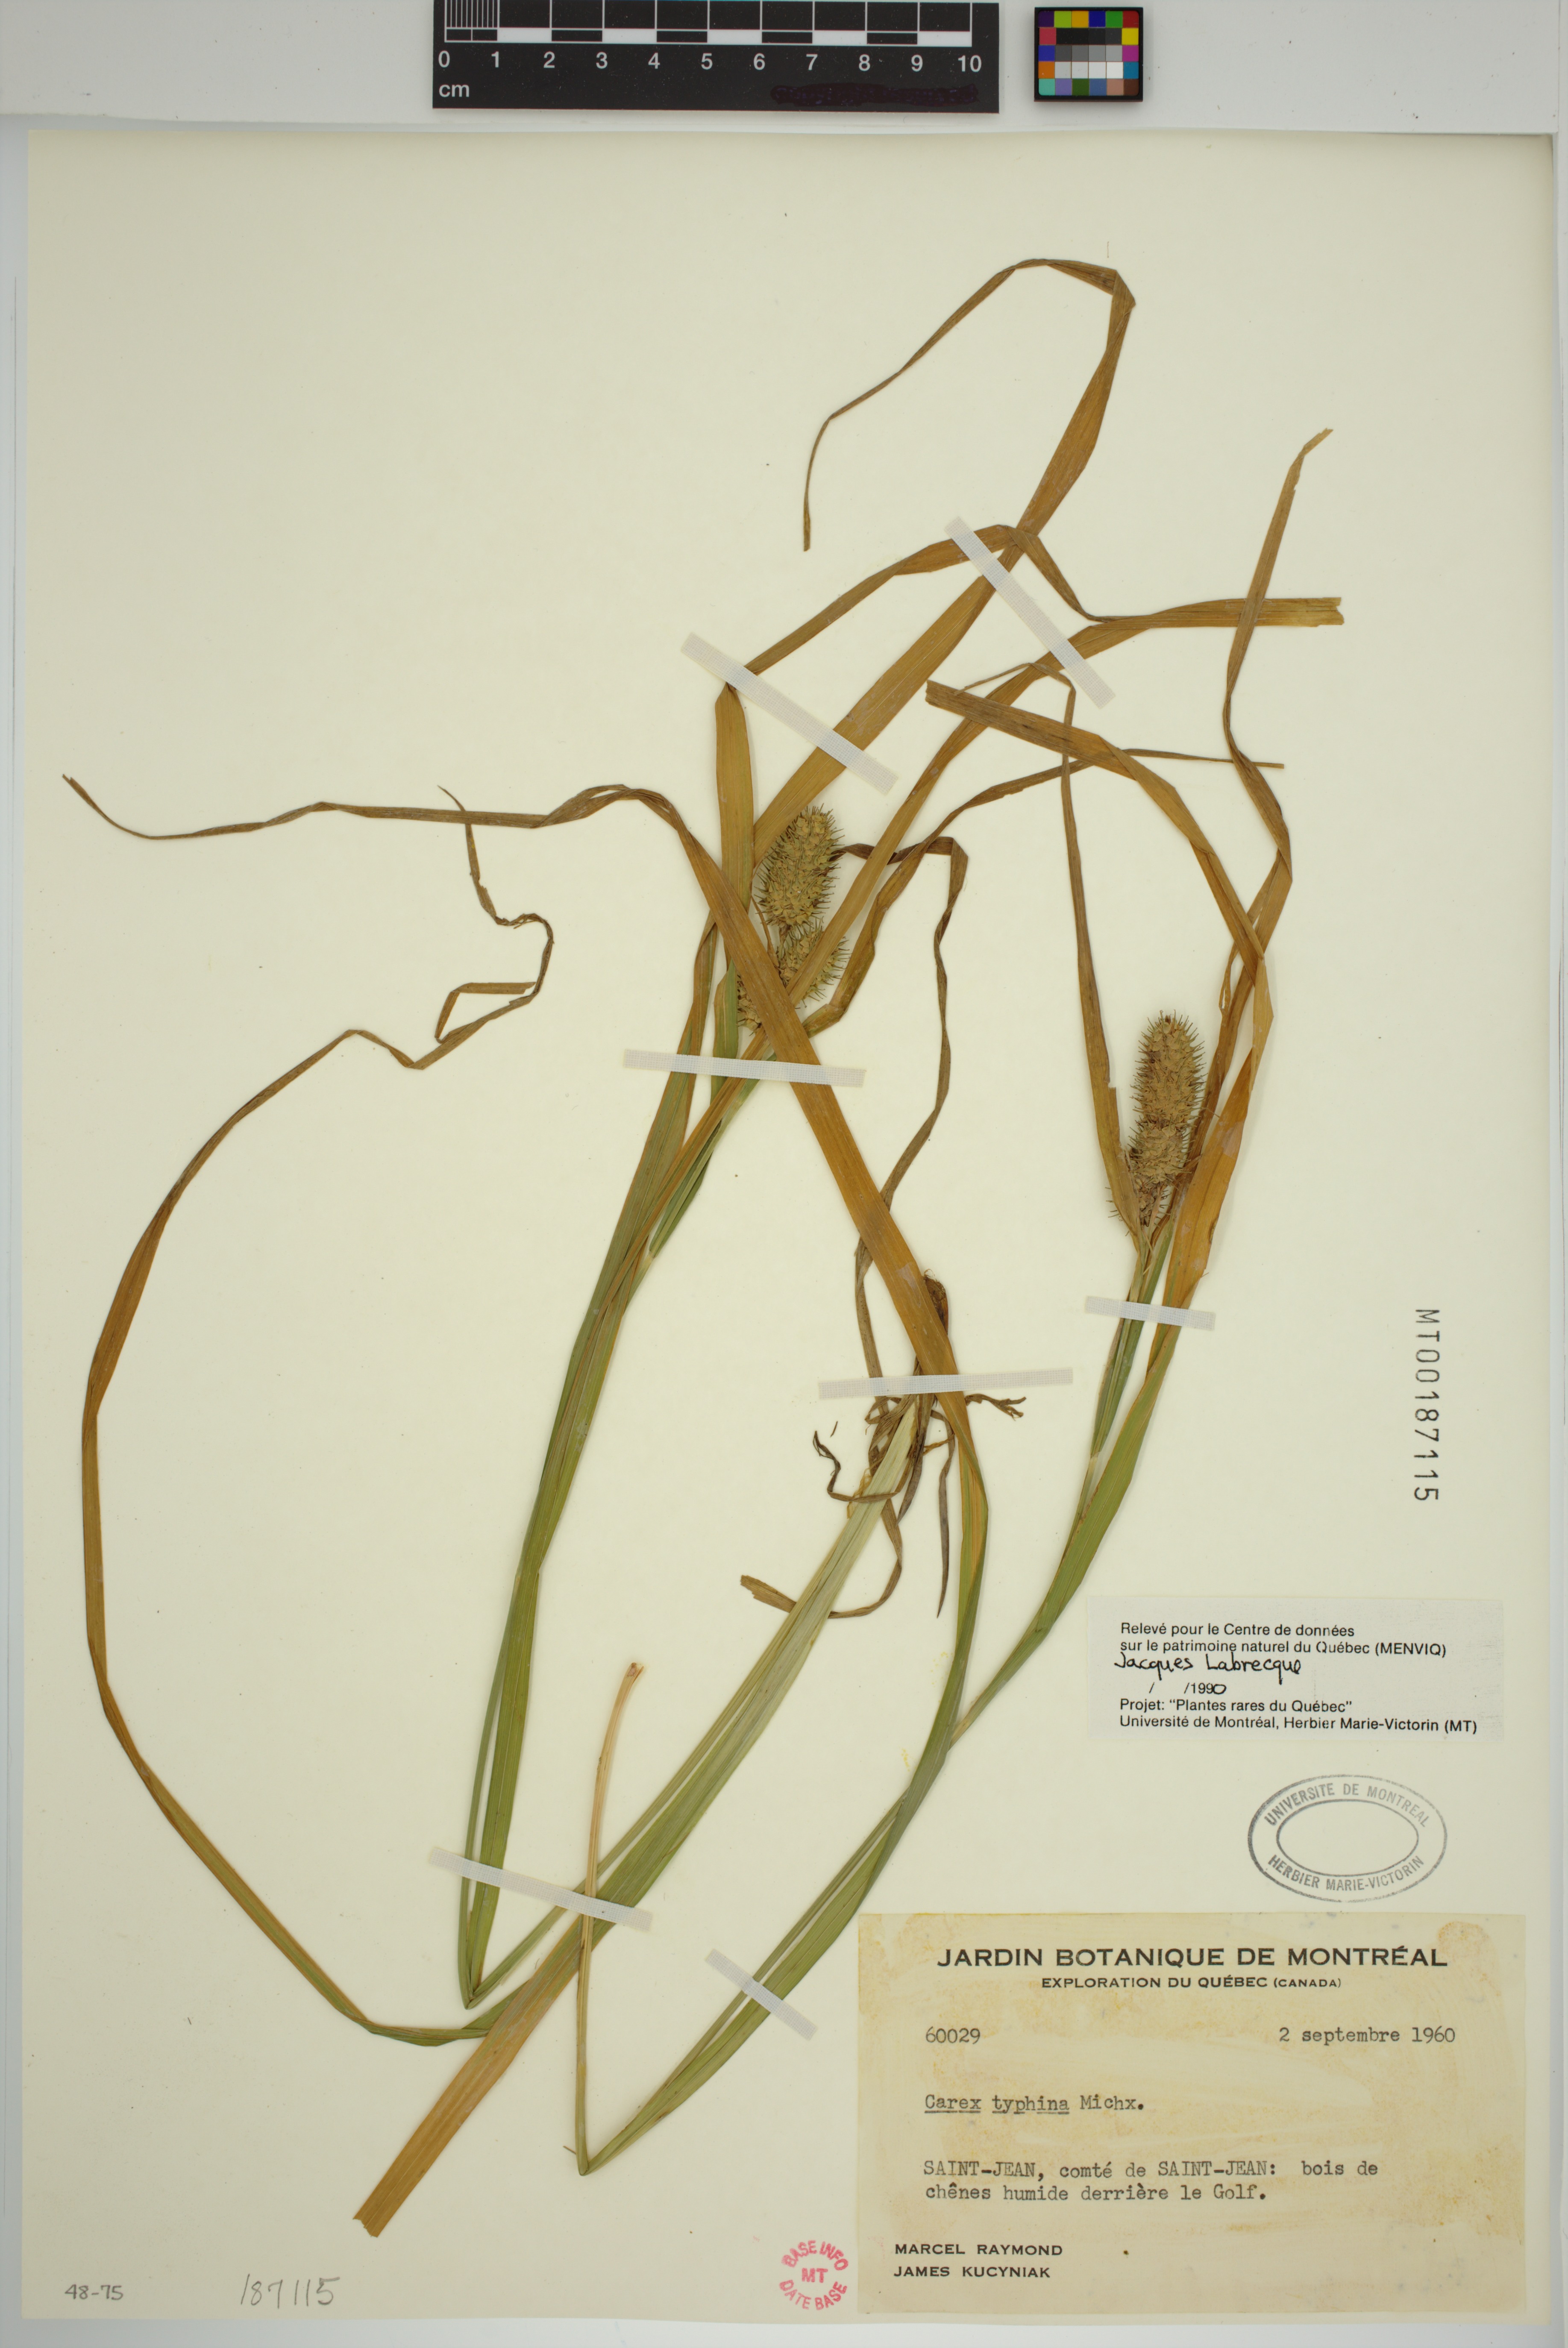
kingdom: Plantae
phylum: Tracheophyta
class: Liliopsida
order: Poales
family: Cyperaceae
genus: Carex
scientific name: Carex typhina
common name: Cattail sedge
